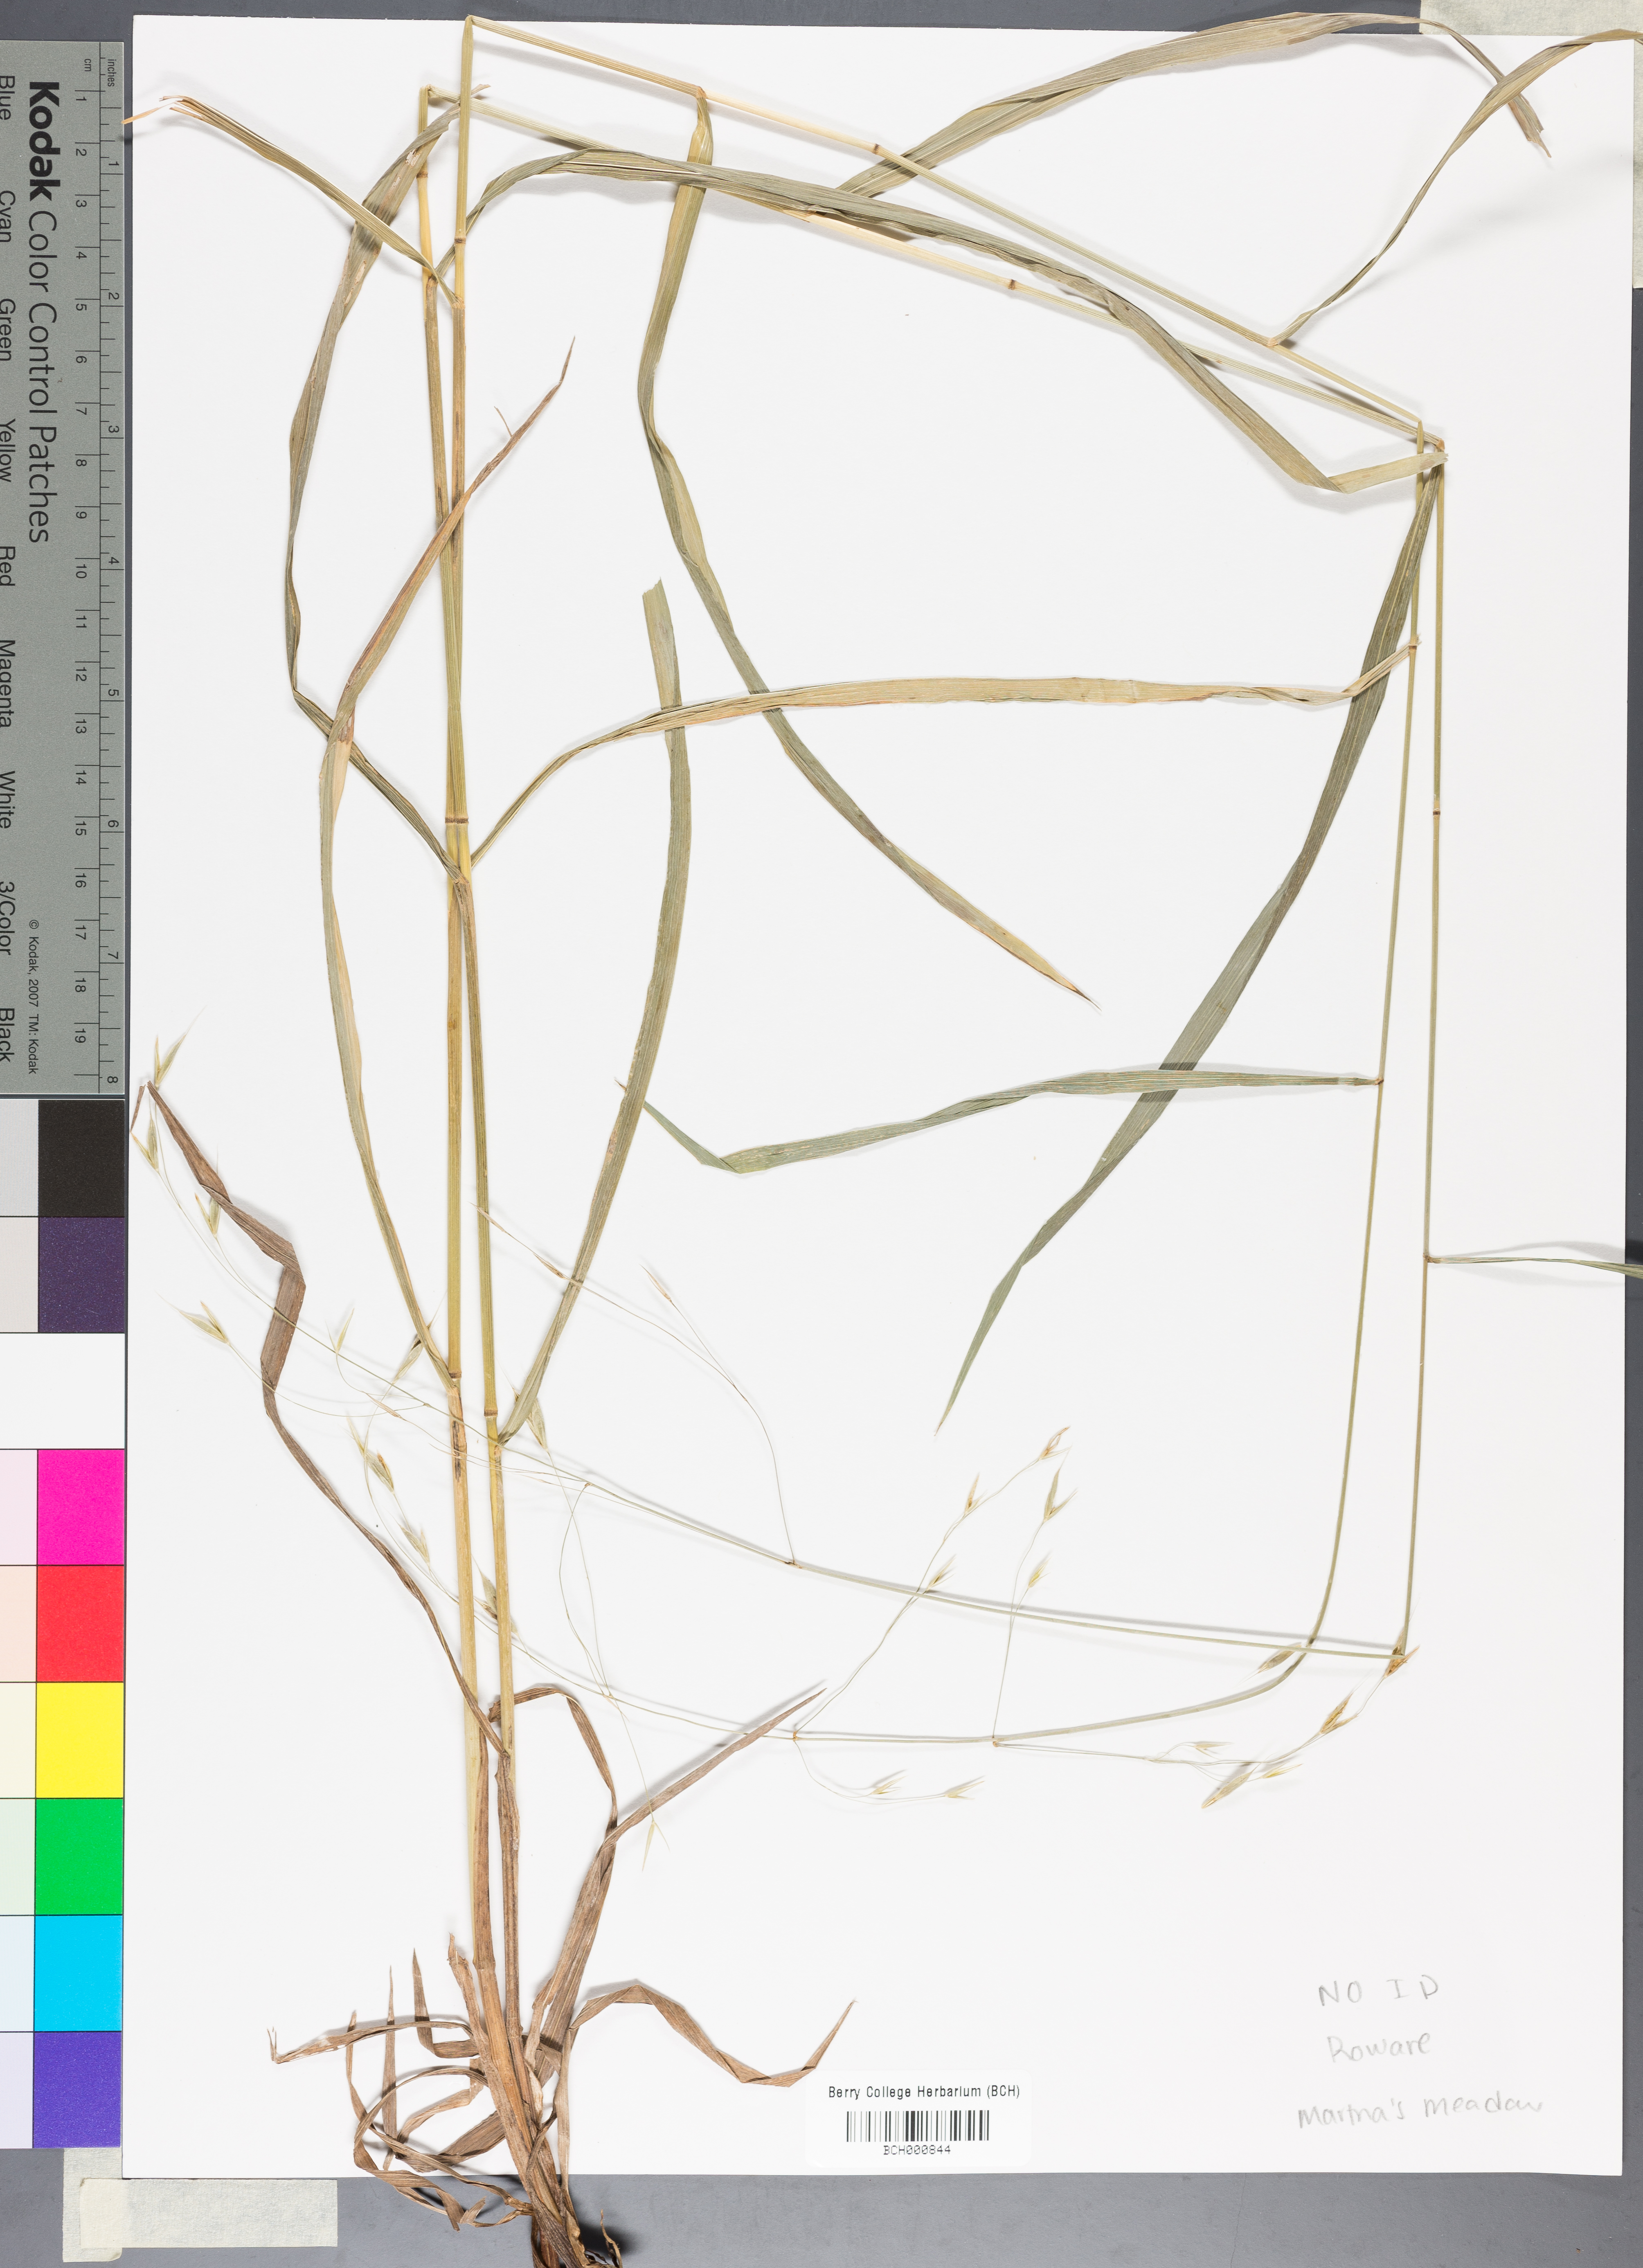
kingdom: Plantae
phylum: Tracheophyta
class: Magnoliopsida
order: Lamiales
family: Acanthaceae
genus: Adhatoda
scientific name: Adhatoda
